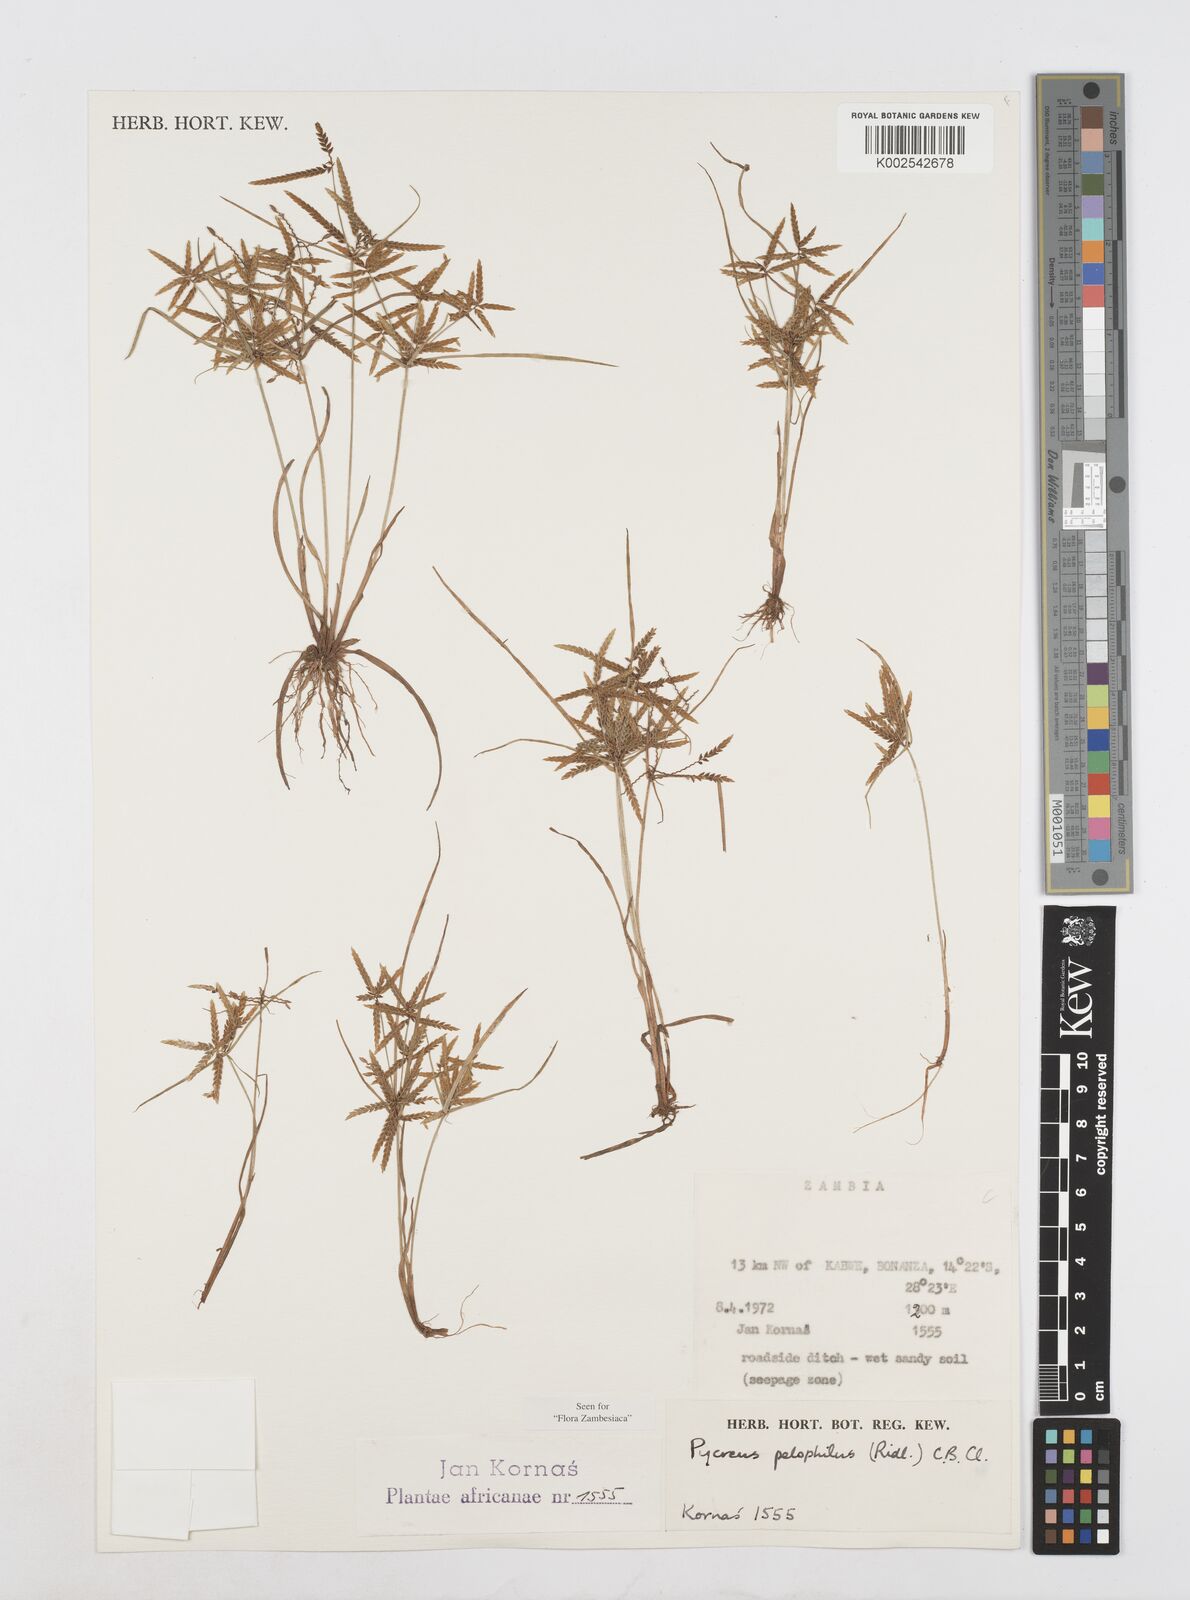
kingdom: Plantae
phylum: Tracheophyta
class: Liliopsida
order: Poales
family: Cyperaceae
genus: Cyperus
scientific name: Cyperus pelophilus
